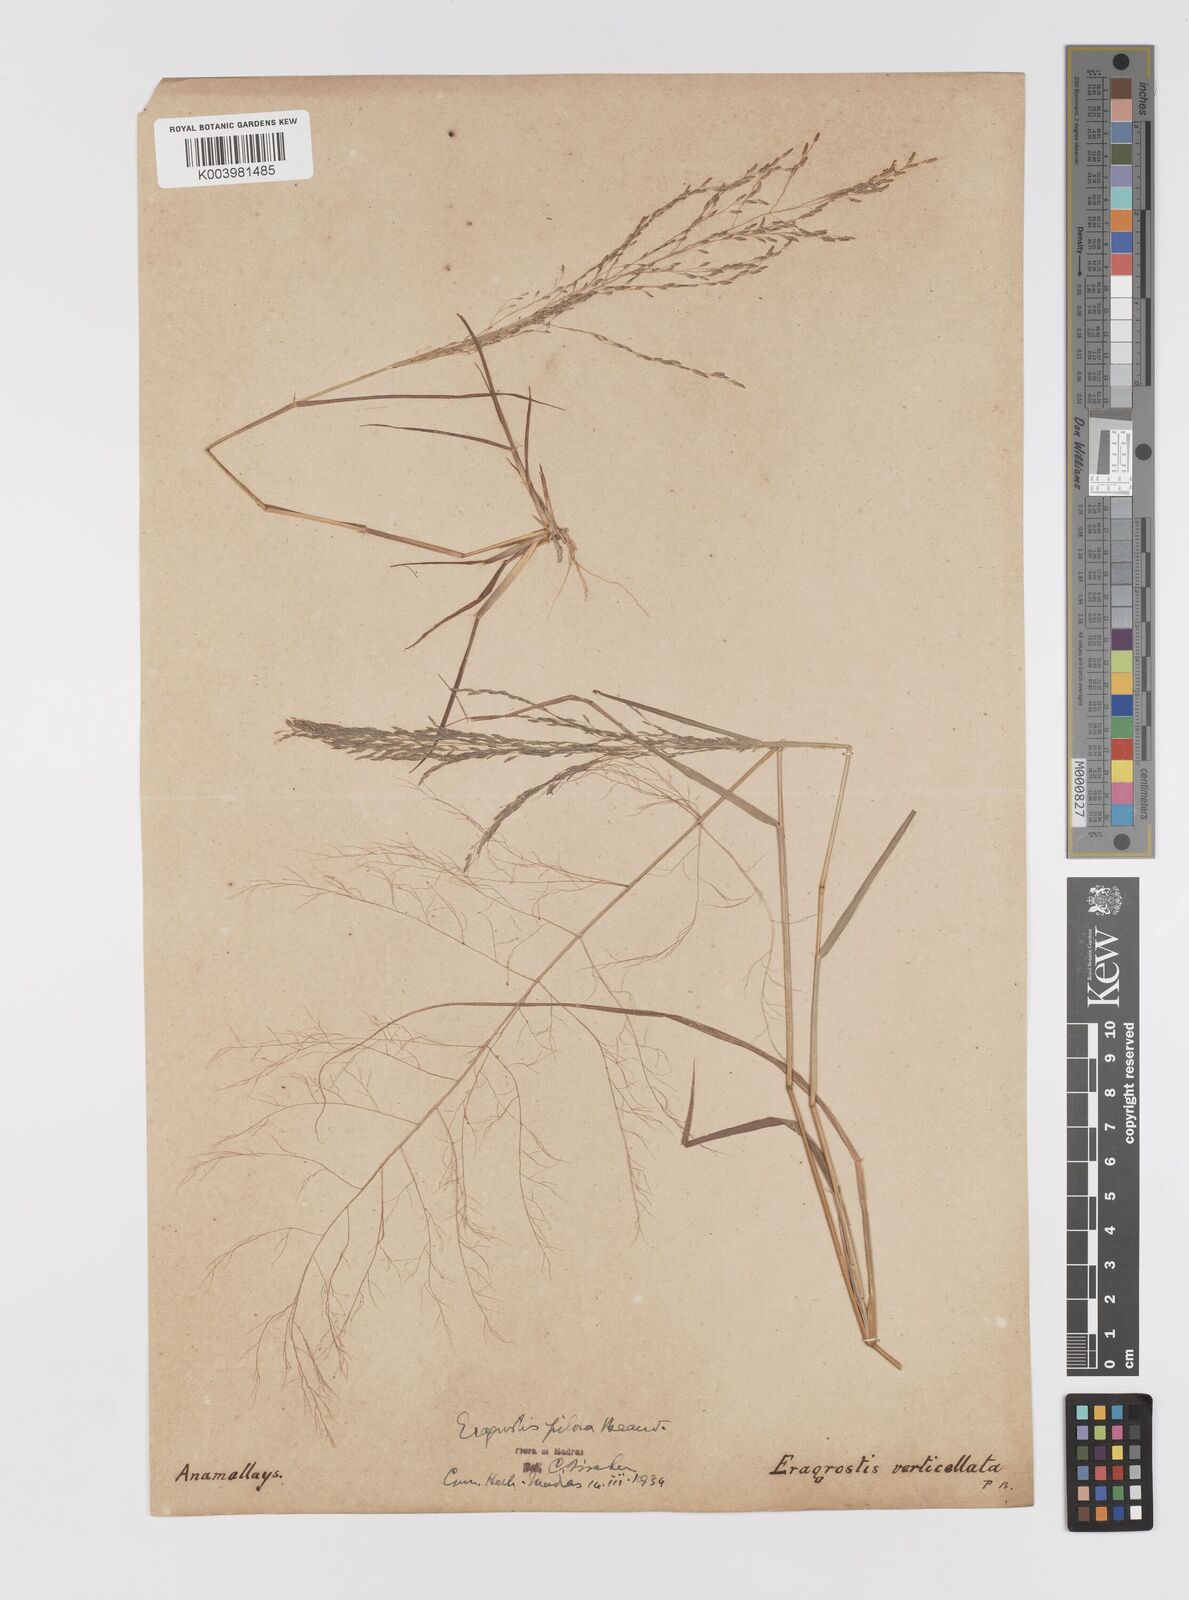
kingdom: Plantae
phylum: Tracheophyta
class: Liliopsida
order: Poales
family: Poaceae
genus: Eragrostis
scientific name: Eragrostis pilosa
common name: Indian lovegrass
